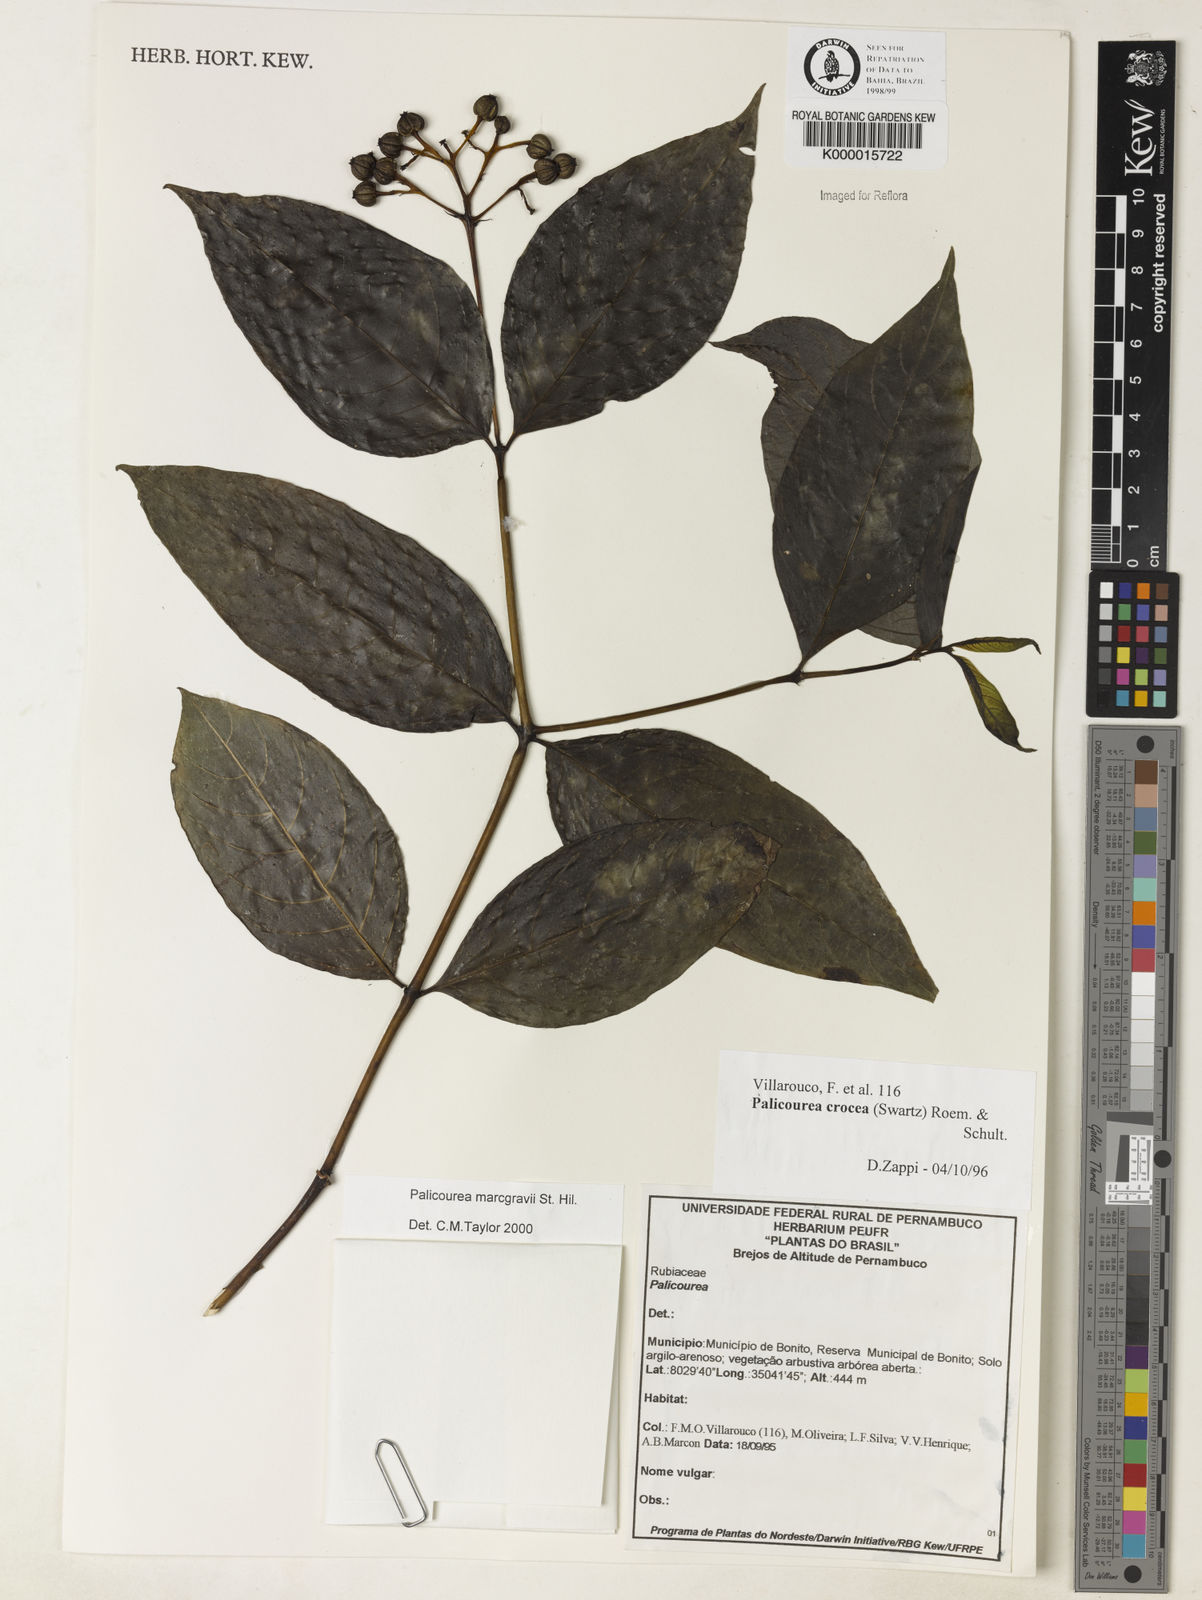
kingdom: Plantae
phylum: Tracheophyta
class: Magnoliopsida
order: Gentianales
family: Rubiaceae
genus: Palicourea
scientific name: Palicourea marcgravii
